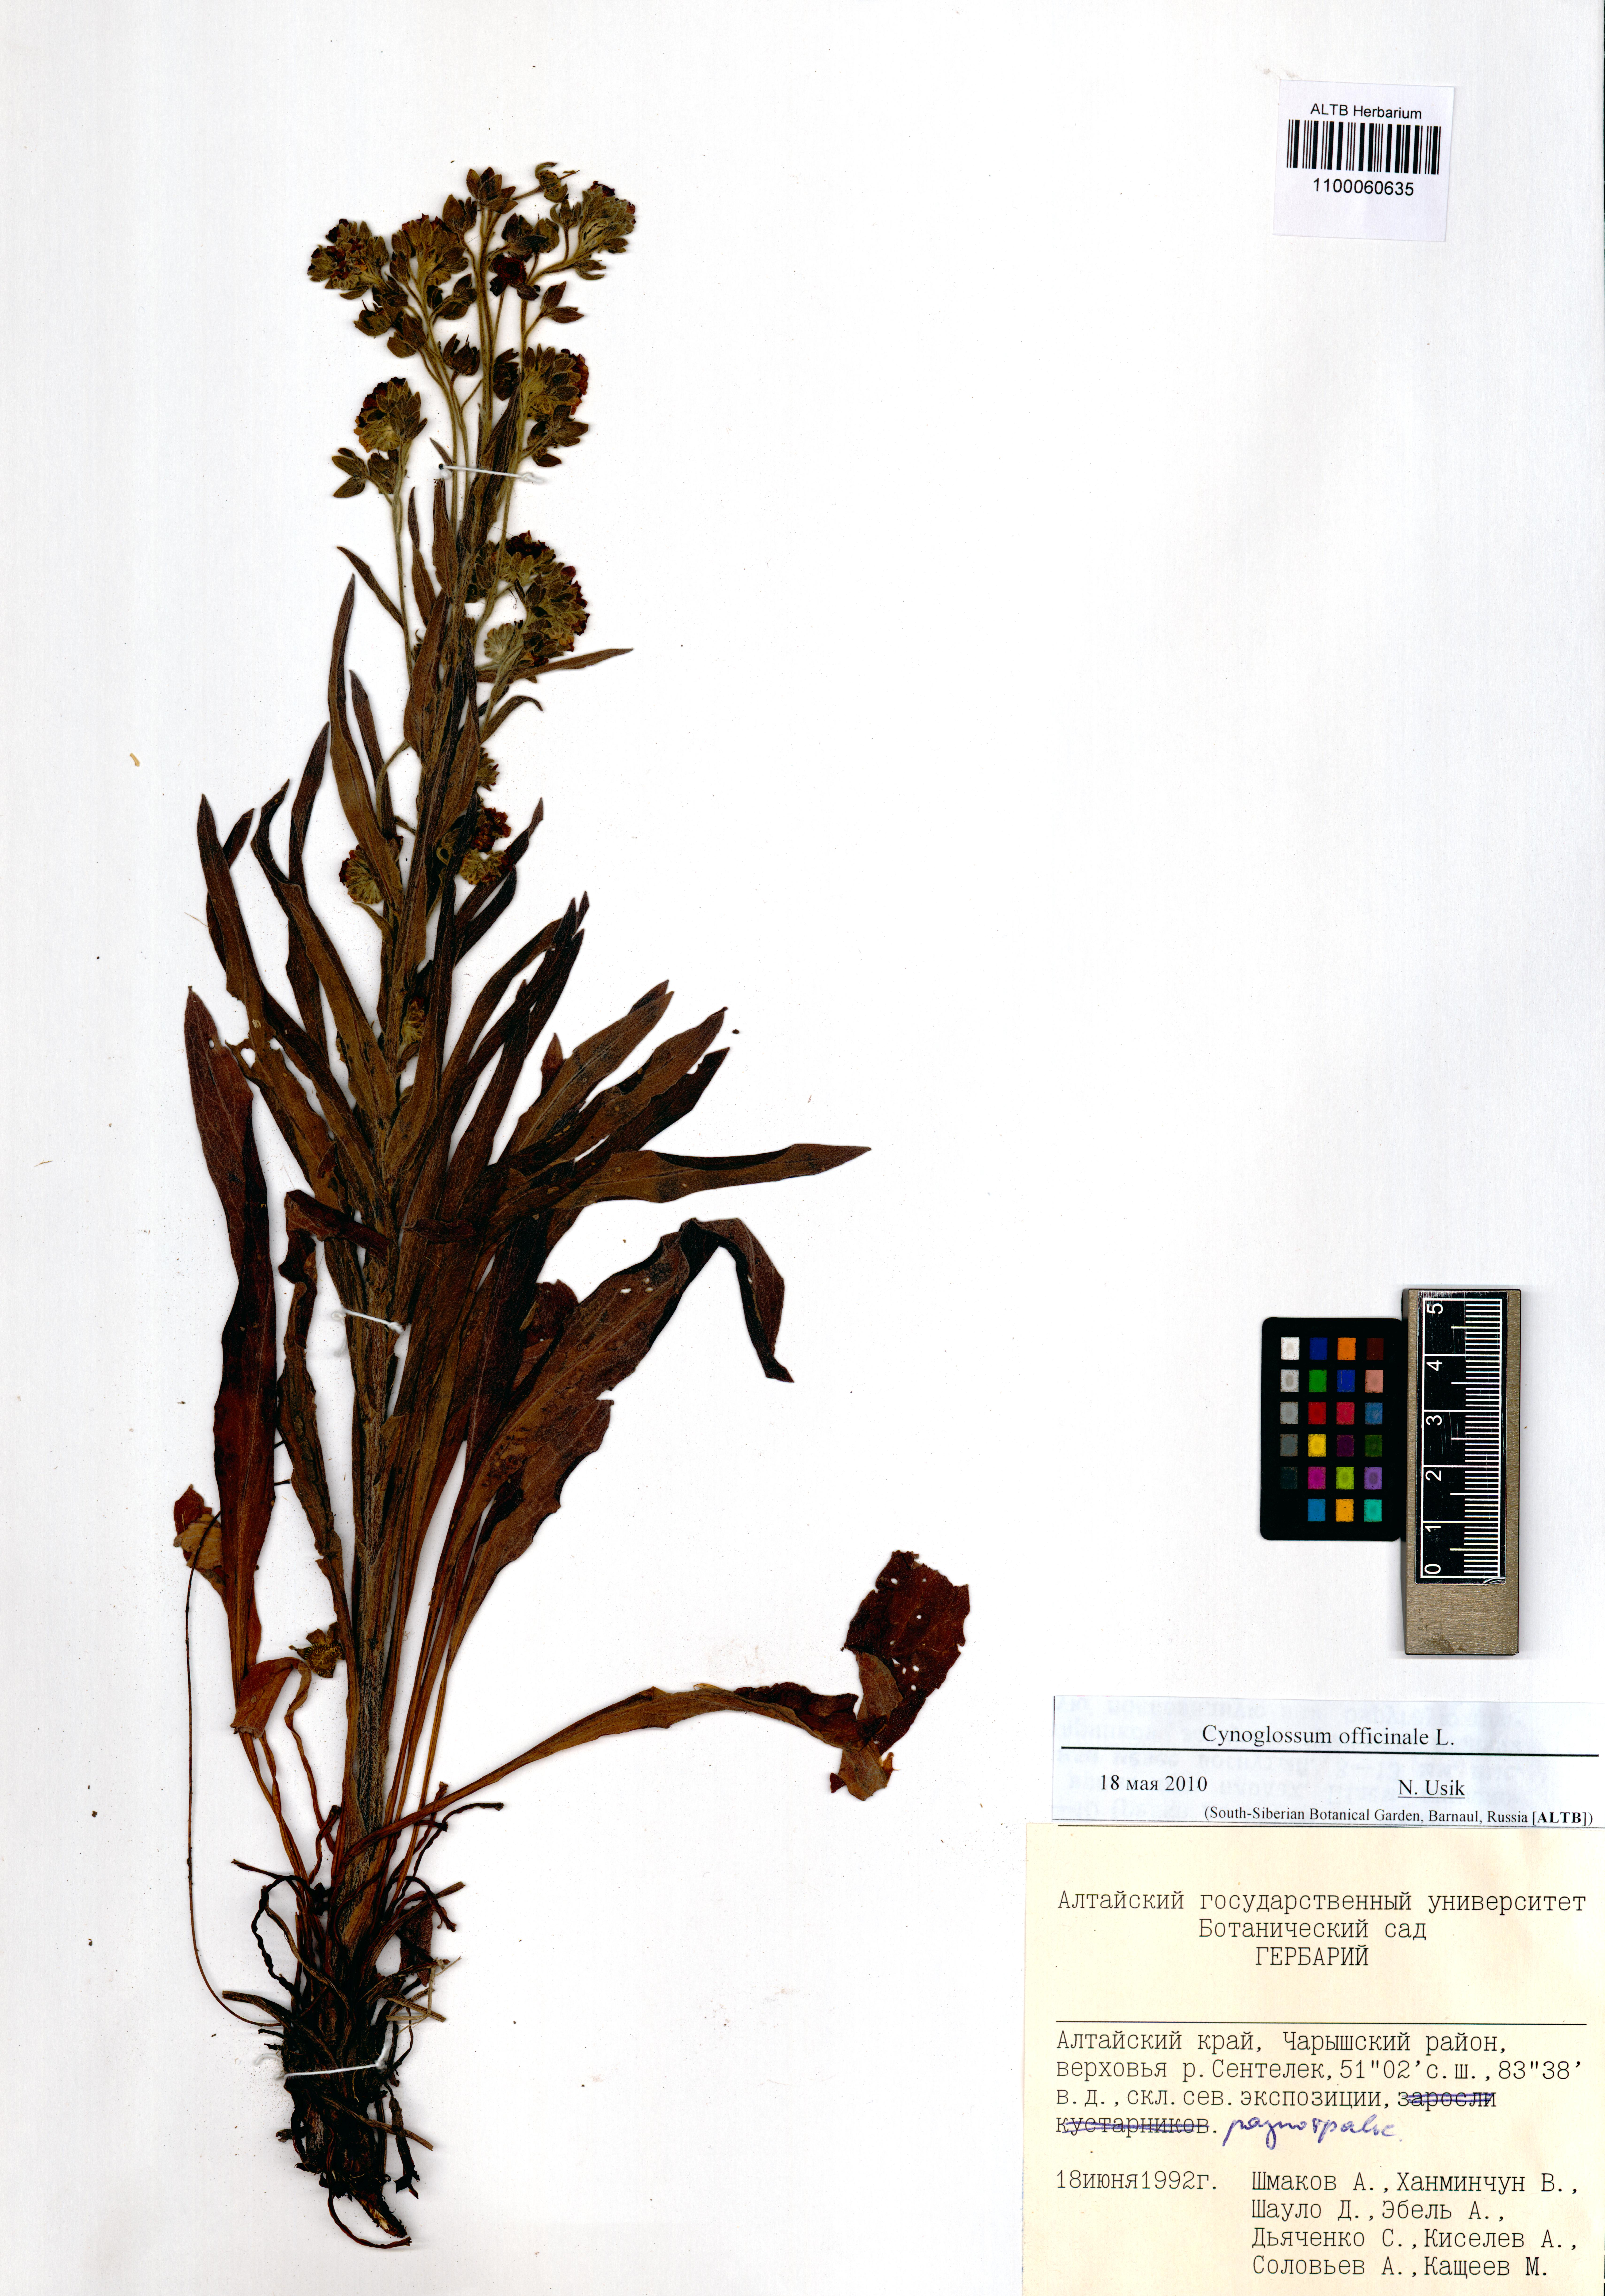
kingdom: Plantae
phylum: Tracheophyta
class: Magnoliopsida
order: Boraginales
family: Boraginaceae
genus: Cynoglossum
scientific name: Cynoglossum officinale
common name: Hound's-tongue
